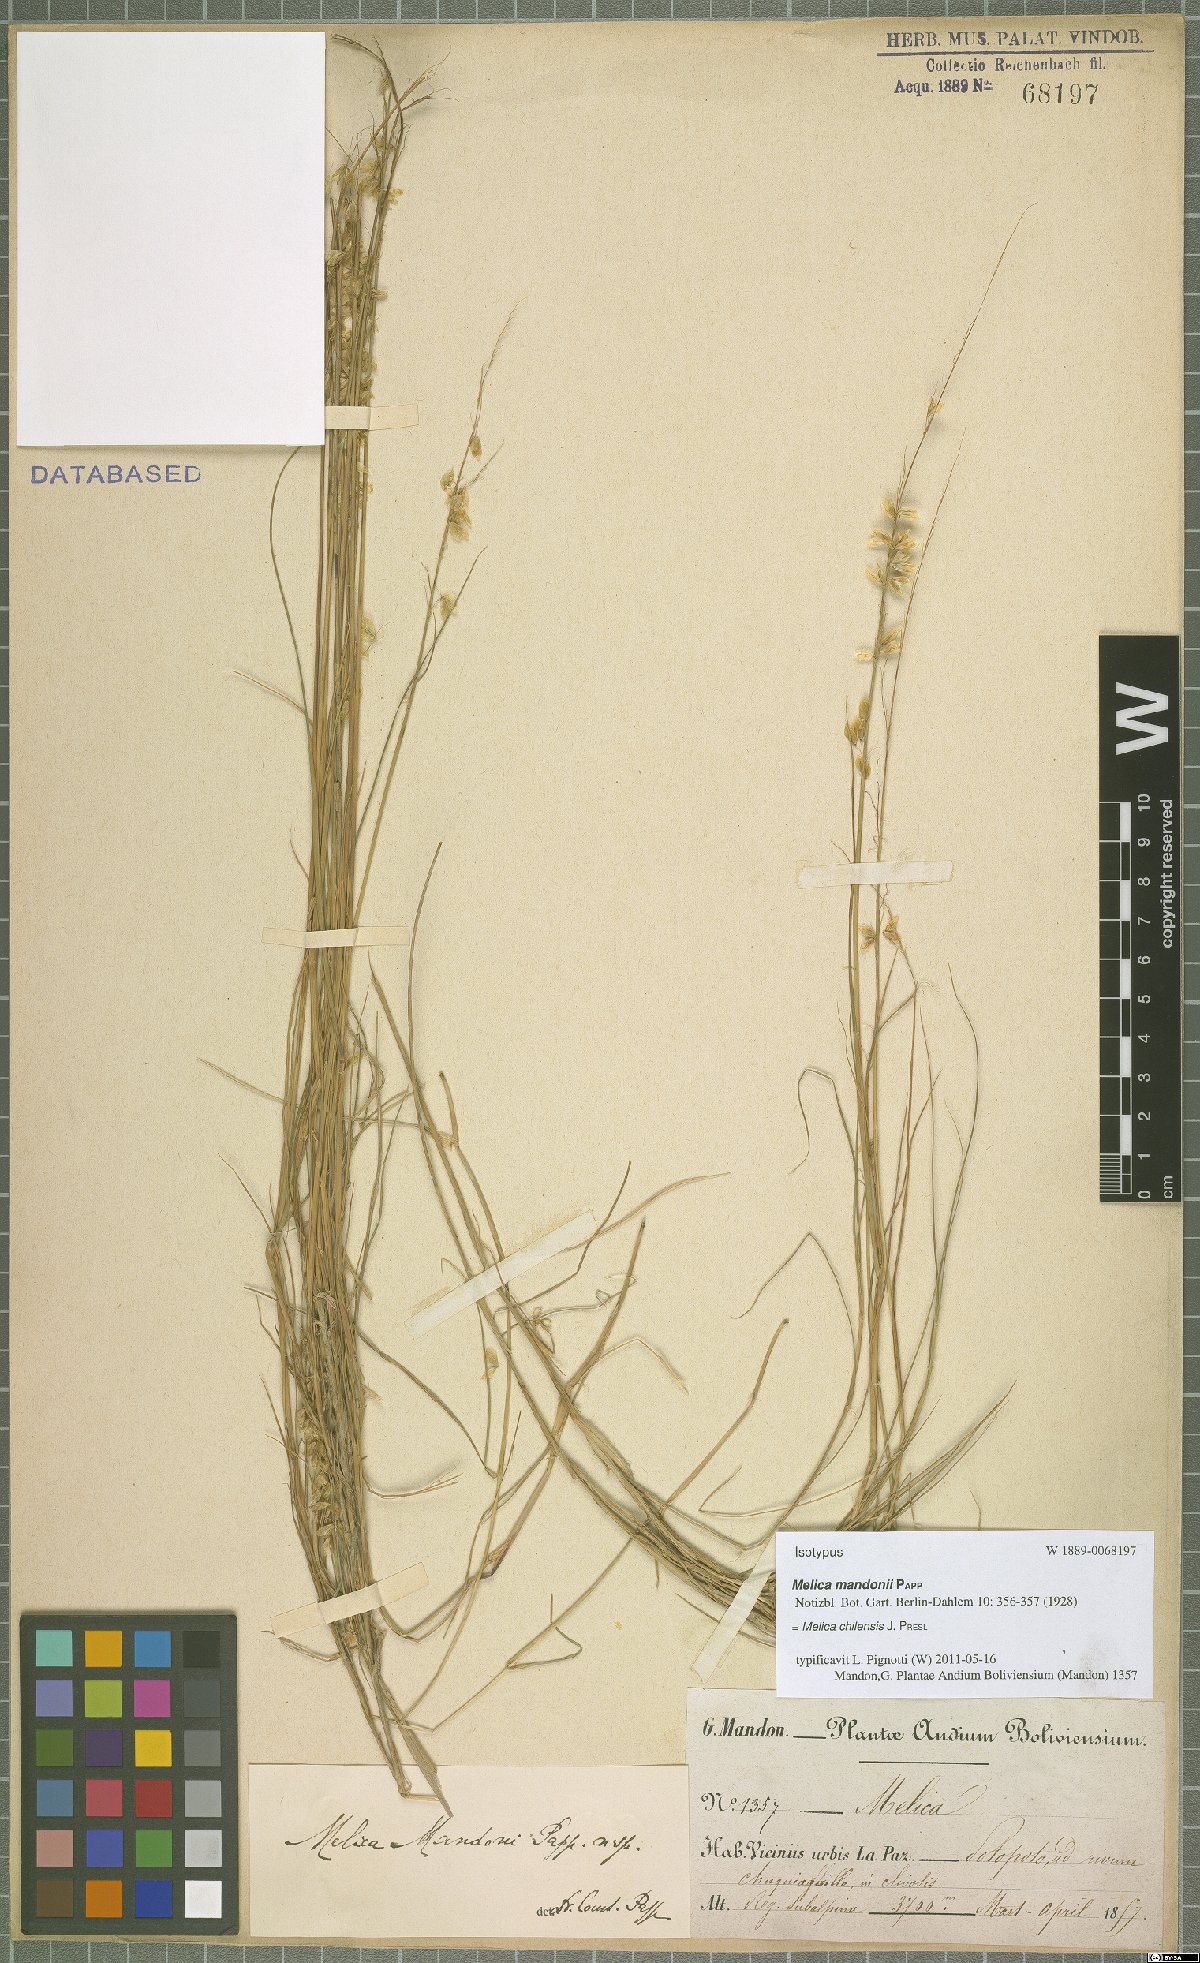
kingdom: Plantae
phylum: Tracheophyta
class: Liliopsida
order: Poales
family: Poaceae
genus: Melica
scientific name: Melica chilensis
